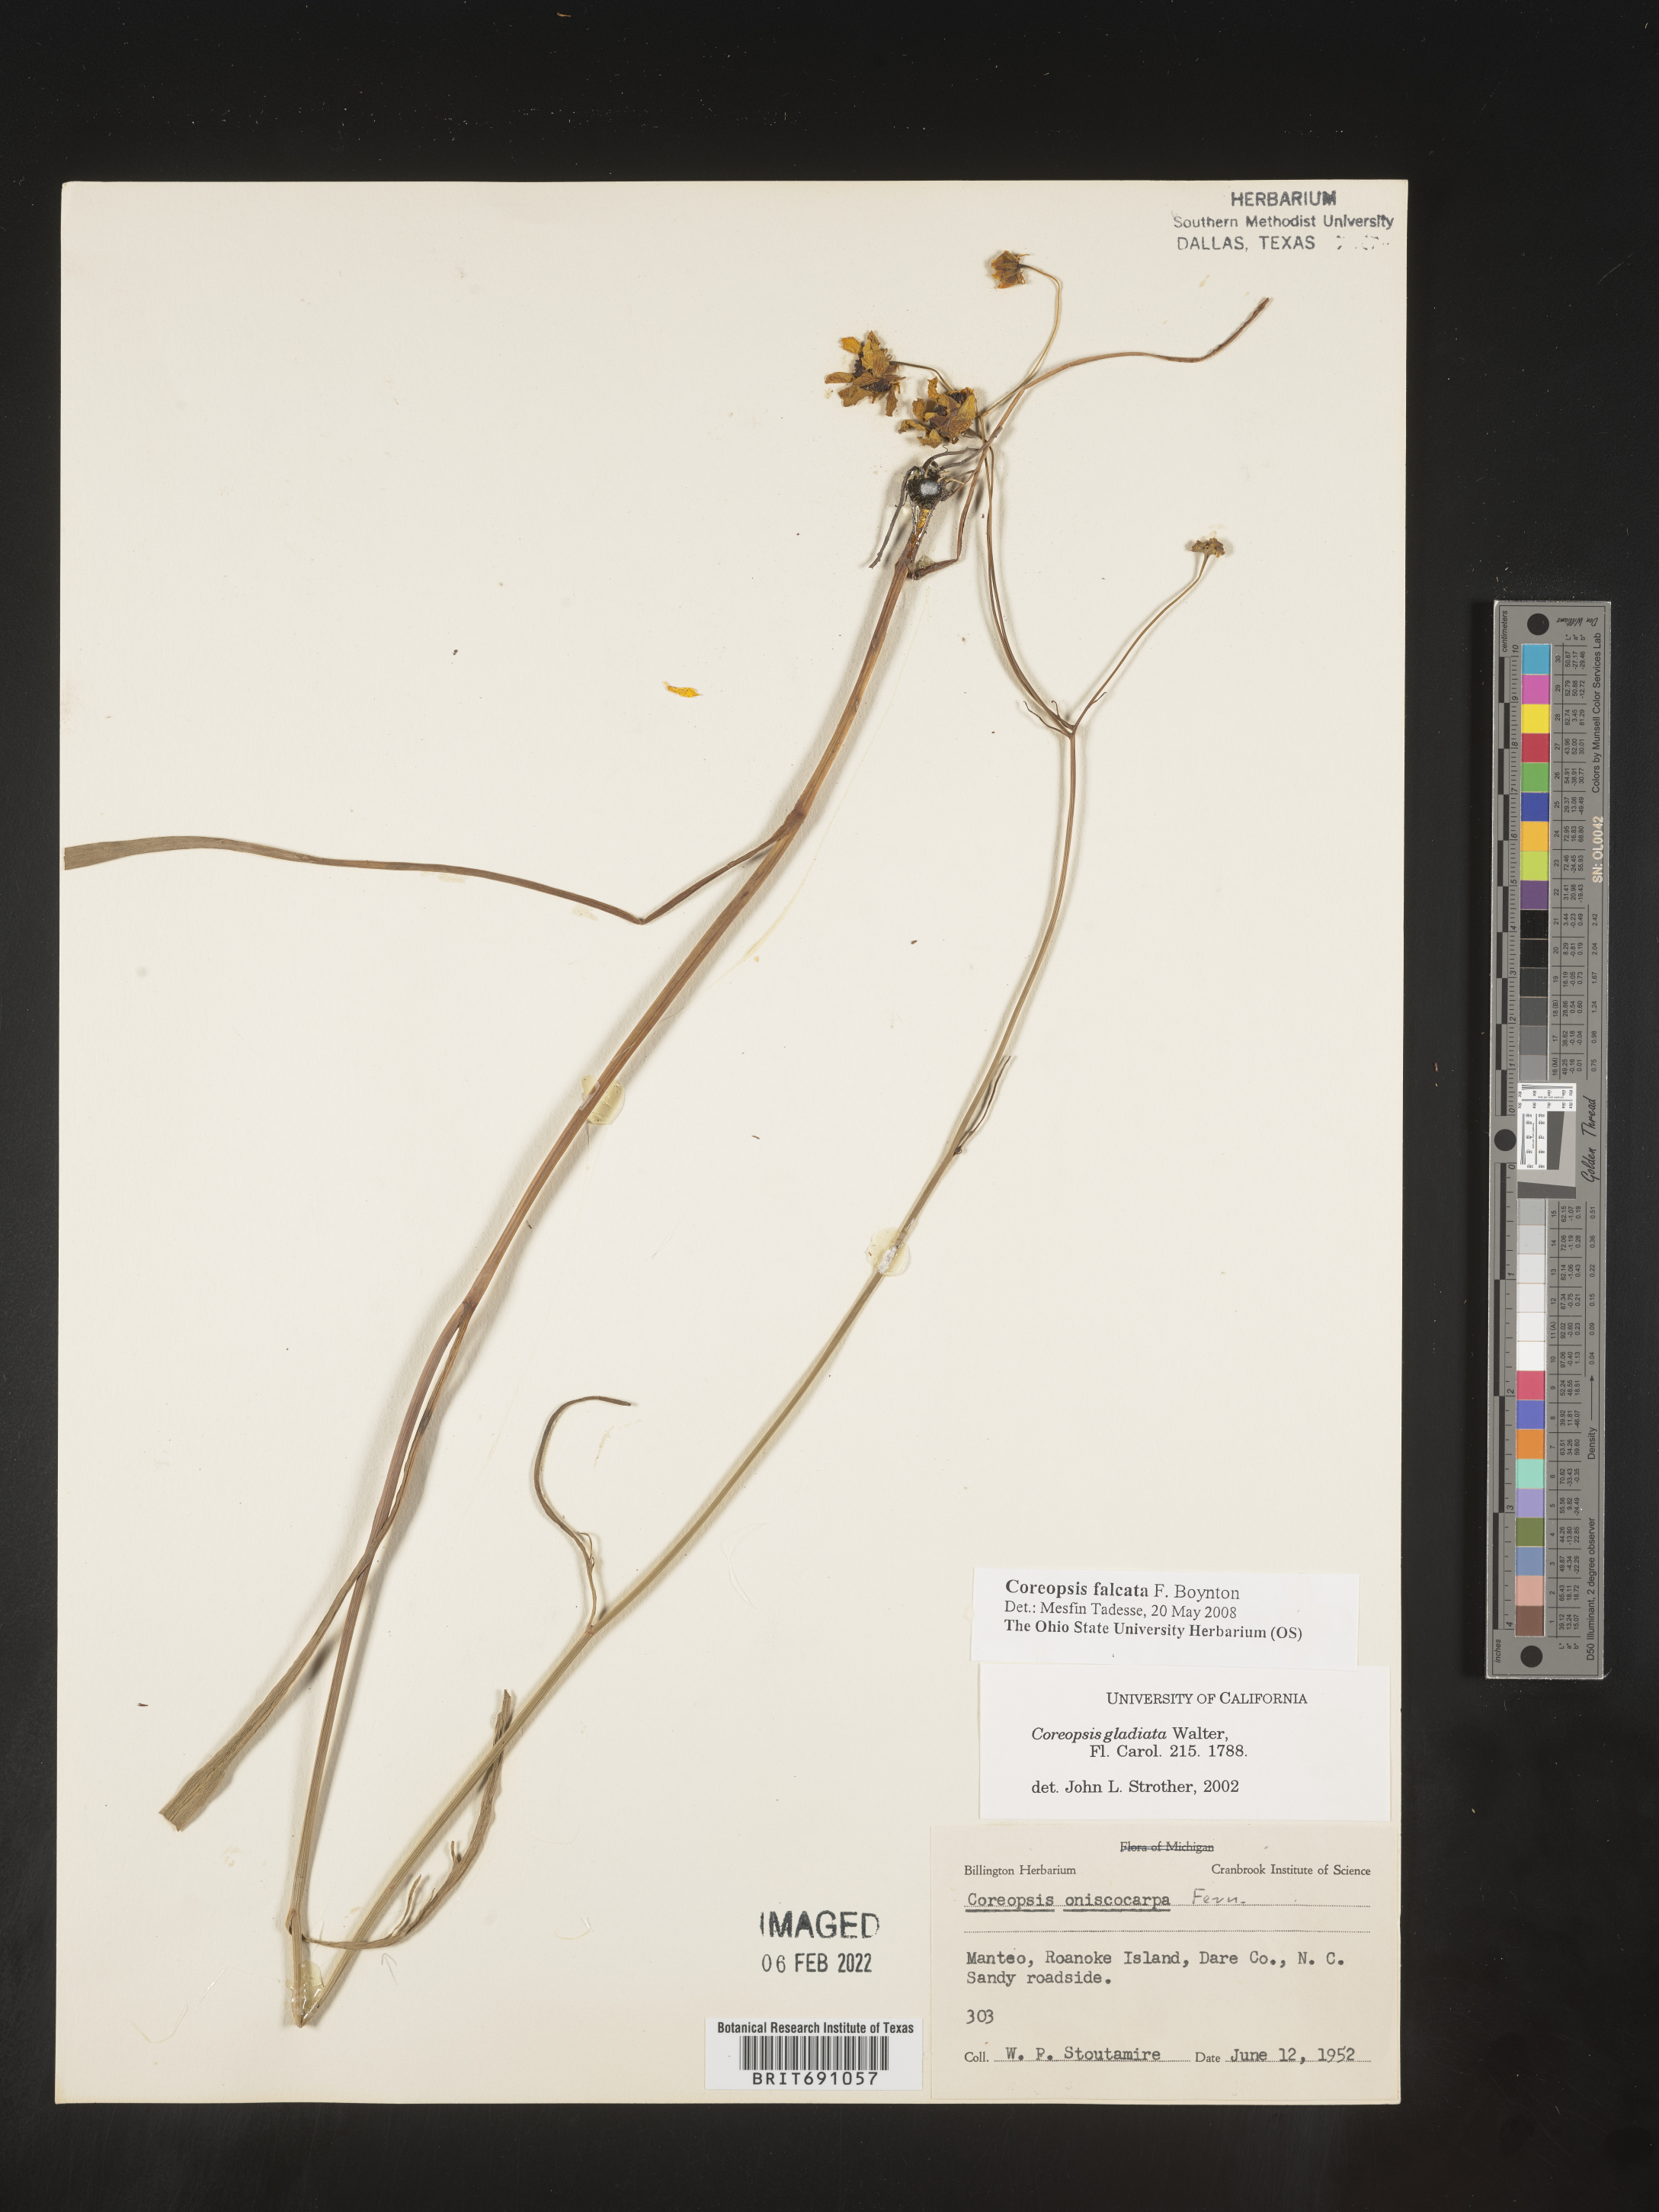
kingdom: Plantae
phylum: Tracheophyta
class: Magnoliopsida
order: Asterales
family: Asteraceae
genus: Coreopsis
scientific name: Coreopsis
